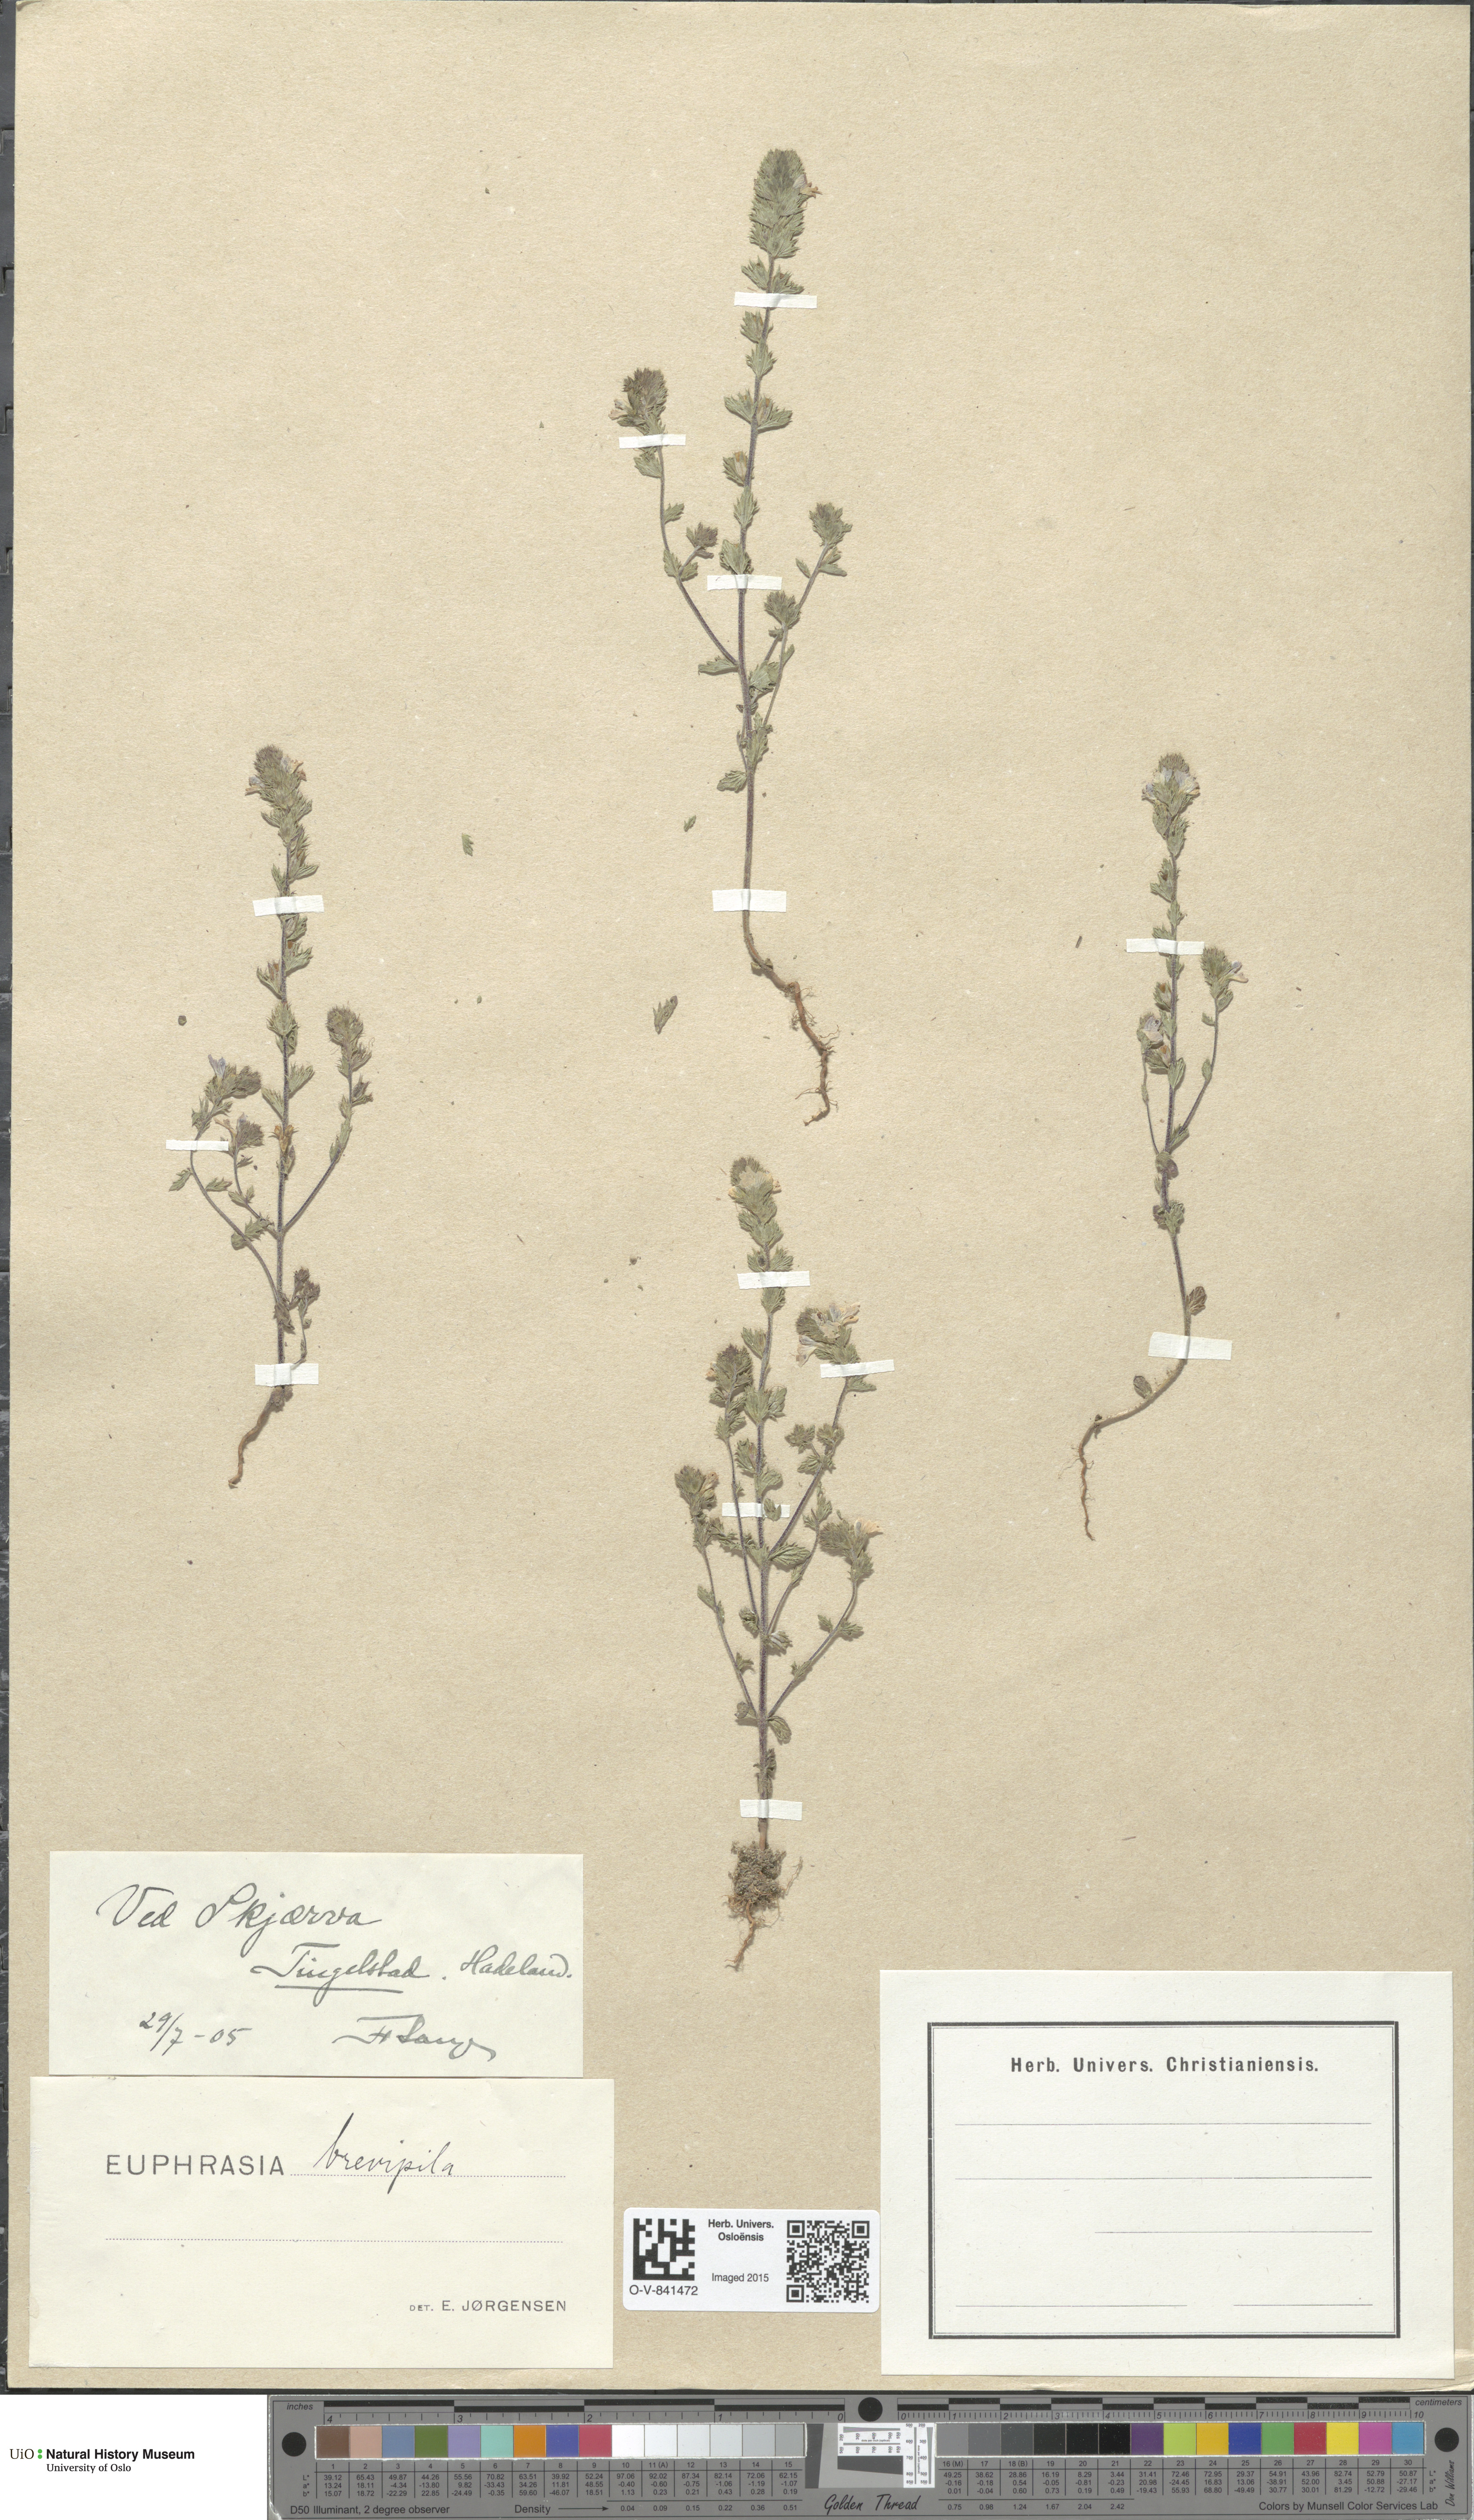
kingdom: Plantae
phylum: Tracheophyta
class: Magnoliopsida
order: Lamiales
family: Orobanchaceae
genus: Euphrasia
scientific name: Euphrasia vernalis
